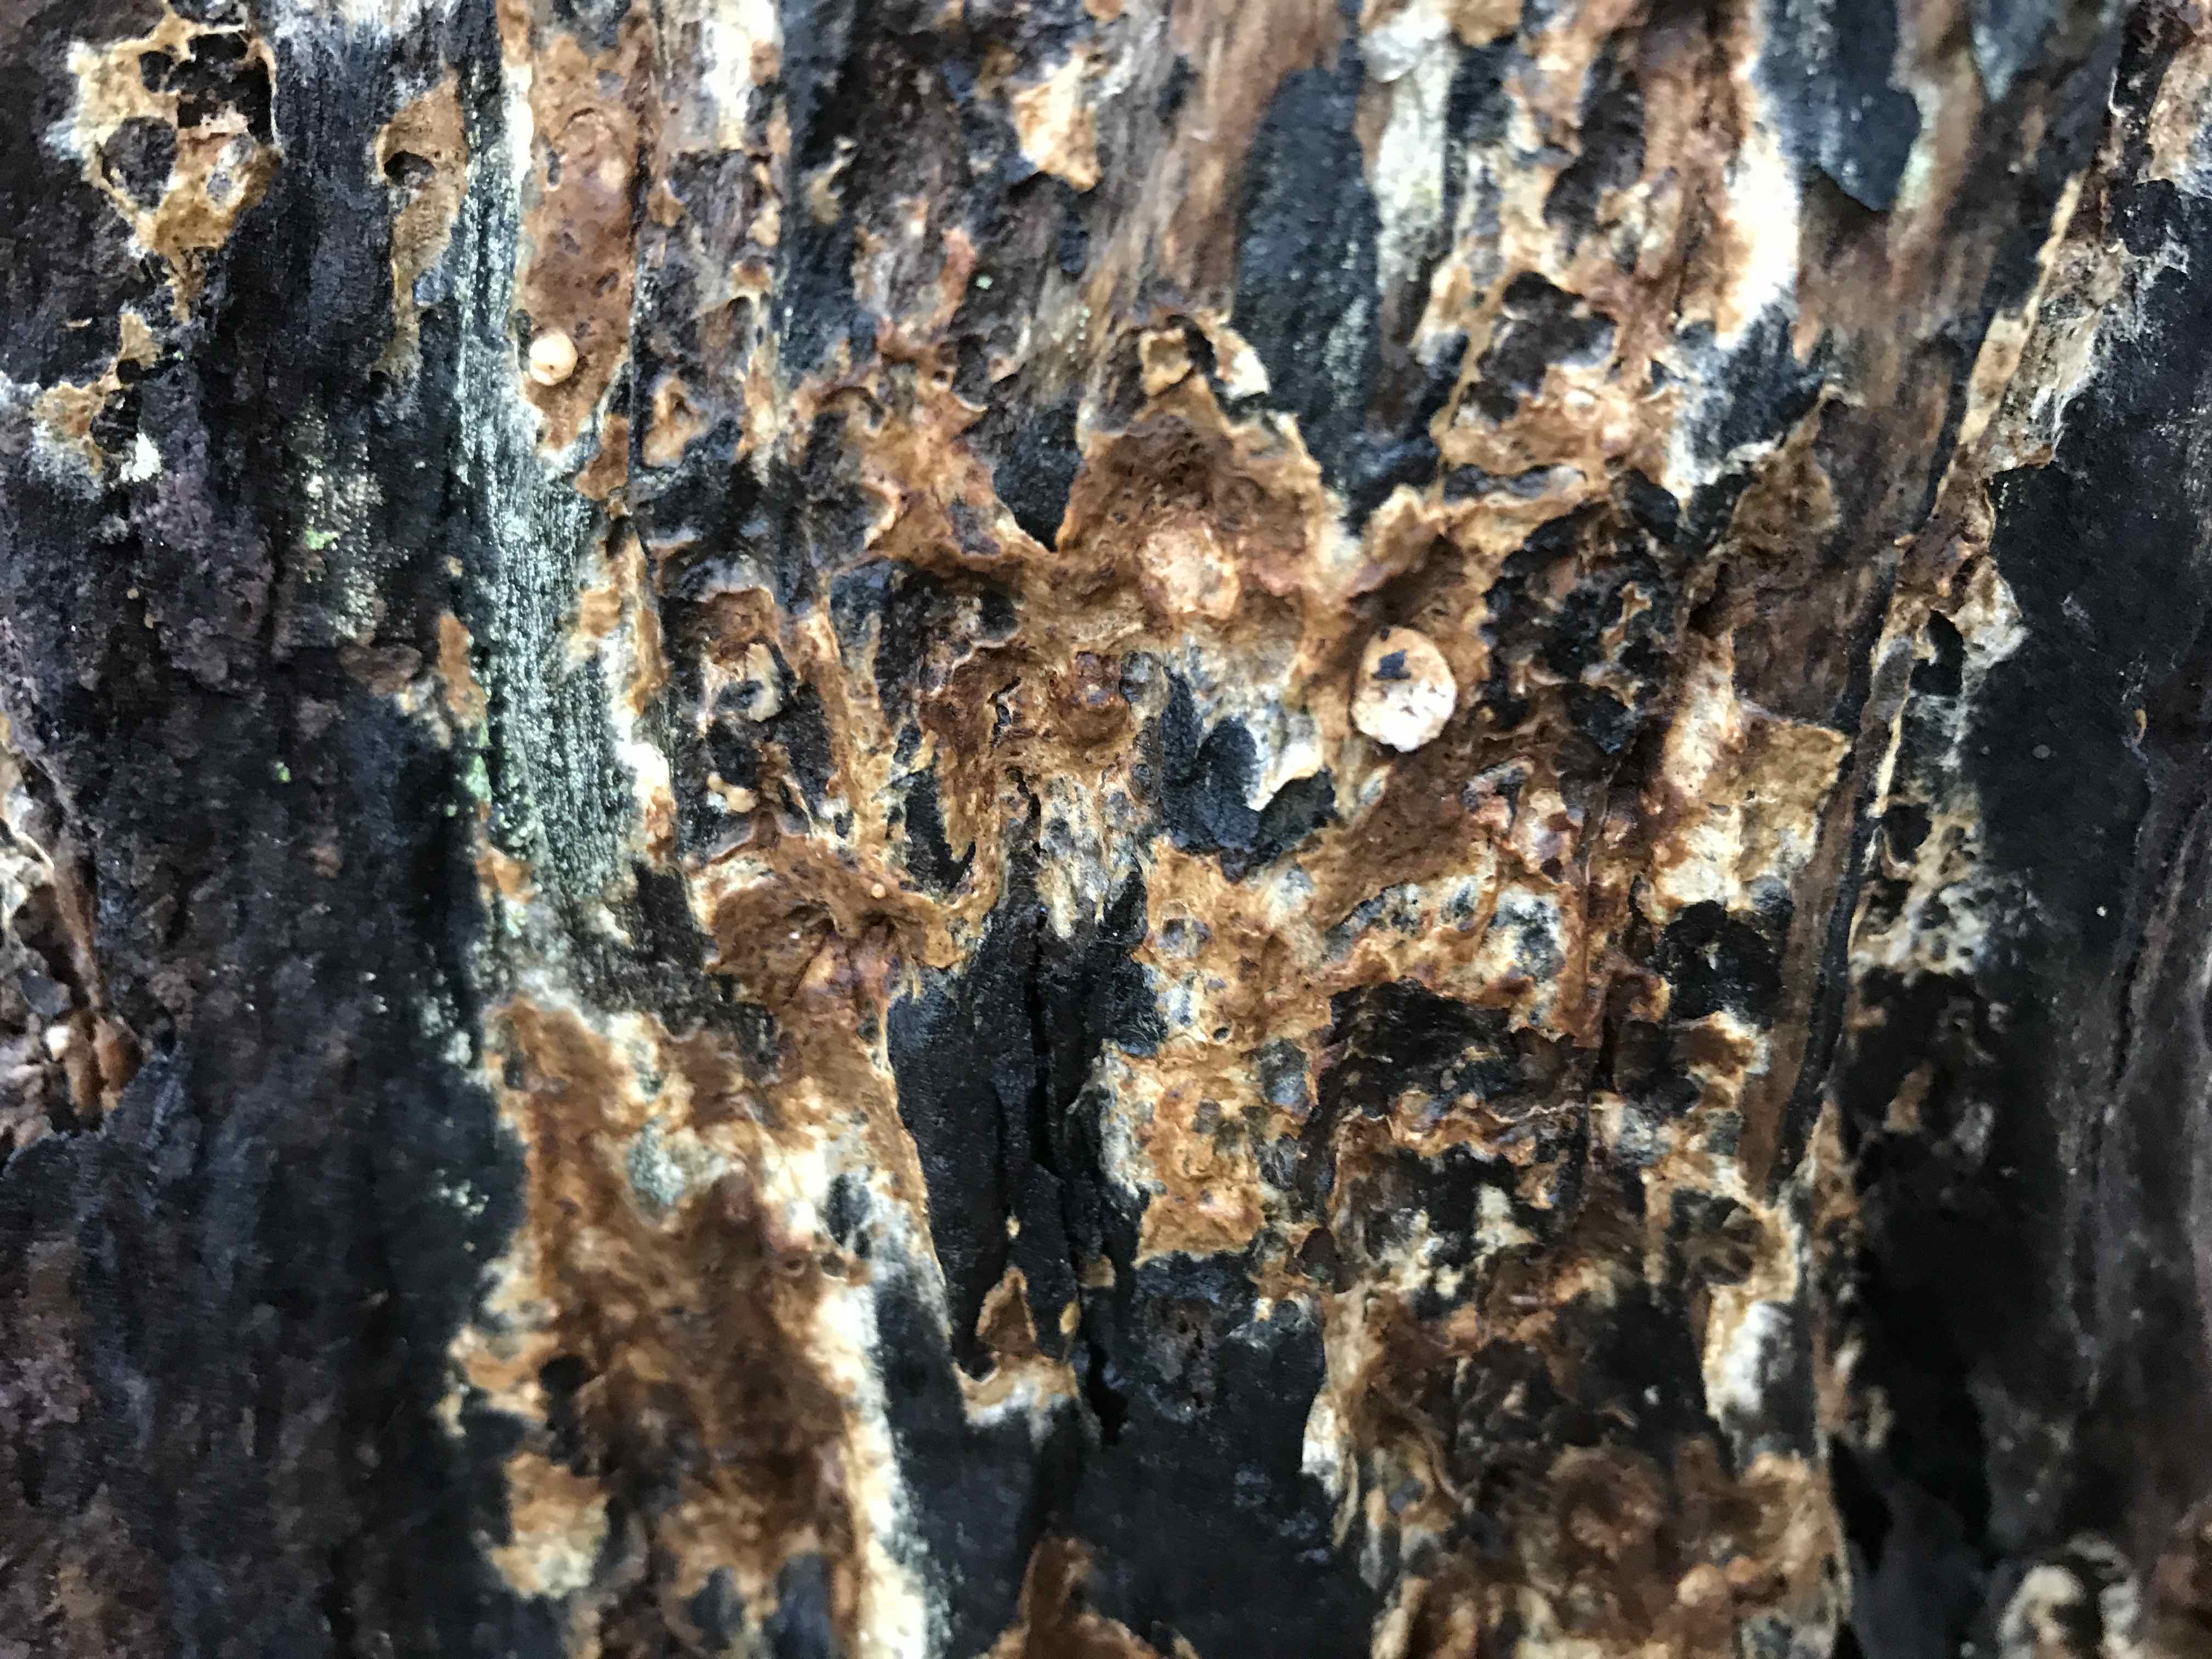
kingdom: Plantae
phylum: Bryophyta
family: Agaricomycetidae
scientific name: Agaricomycetidae
